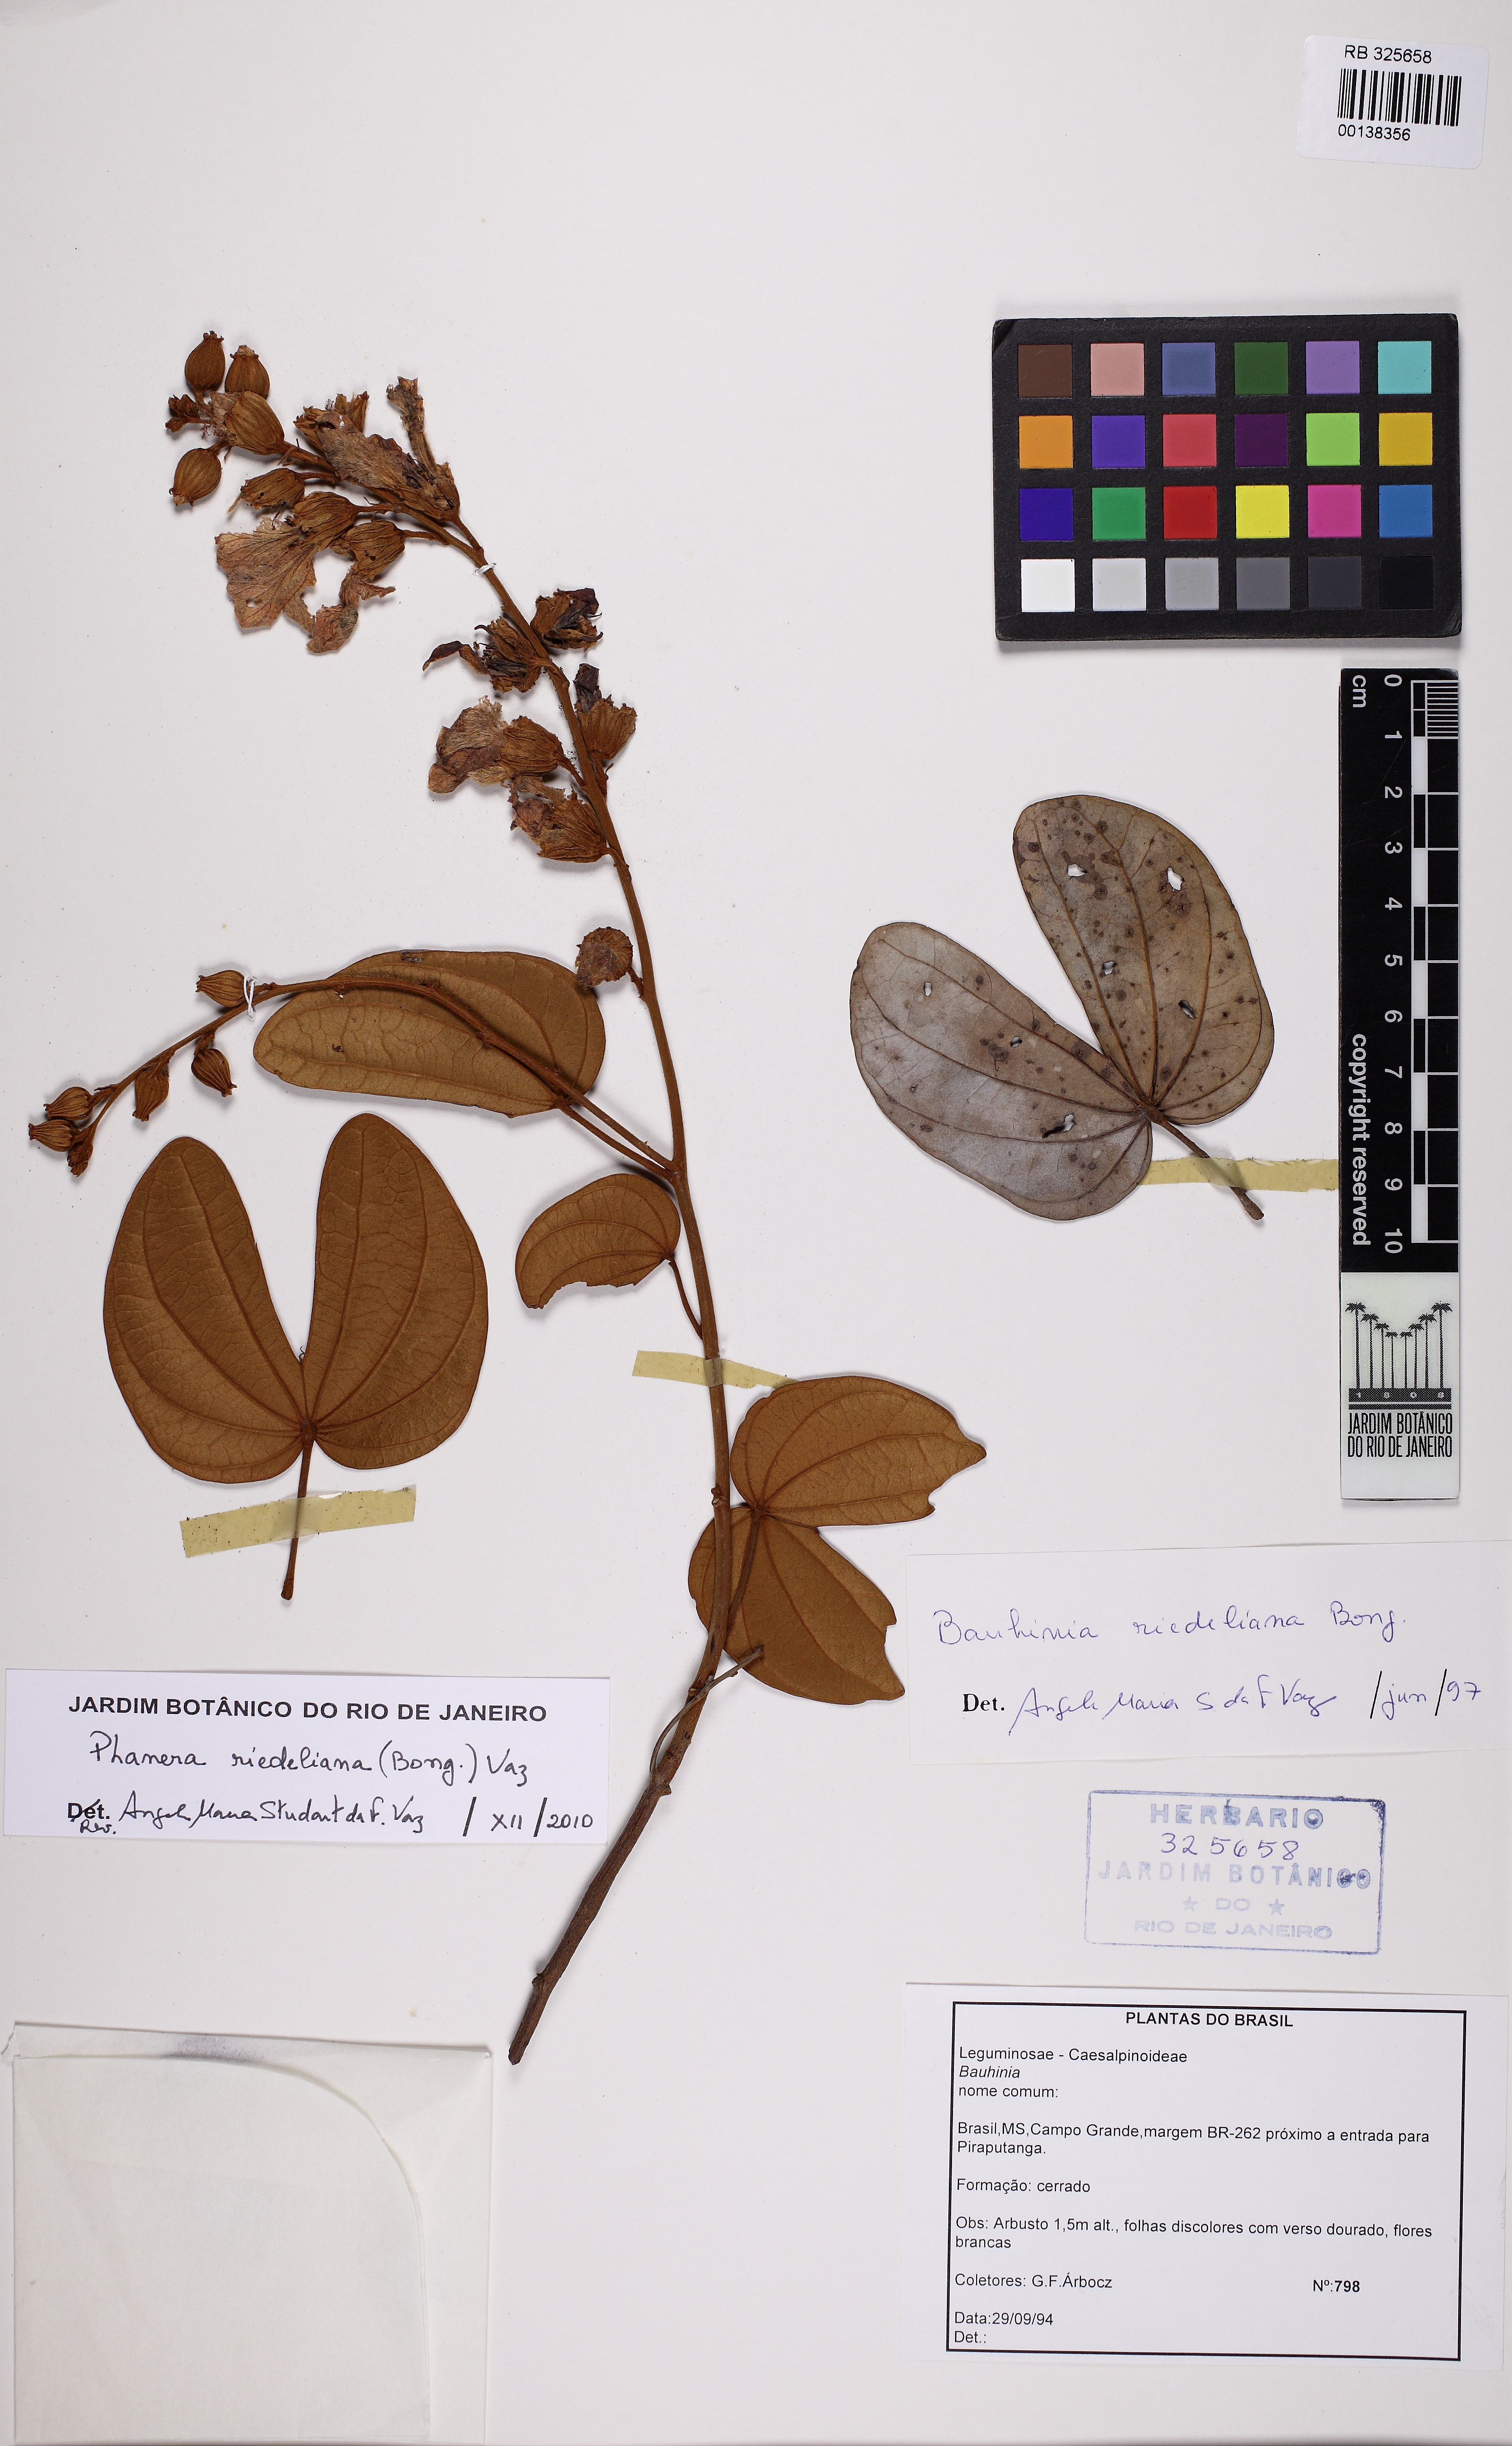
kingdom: Plantae
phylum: Tracheophyta
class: Magnoliopsida
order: Fabales
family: Fabaceae
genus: Schnella
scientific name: Schnella riedeliana
